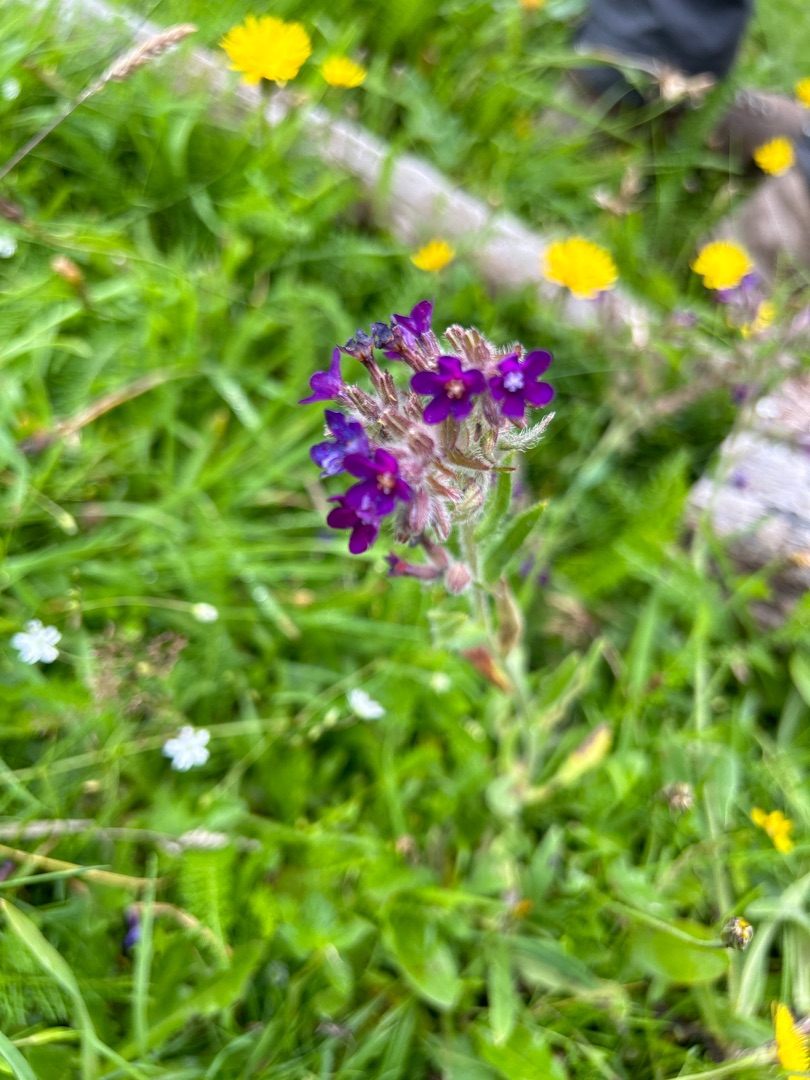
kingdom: Plantae
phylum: Tracheophyta
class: Magnoliopsida
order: Boraginales
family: Boraginaceae
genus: Anchusa
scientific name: Anchusa officinalis
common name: Læge-oksetunge
